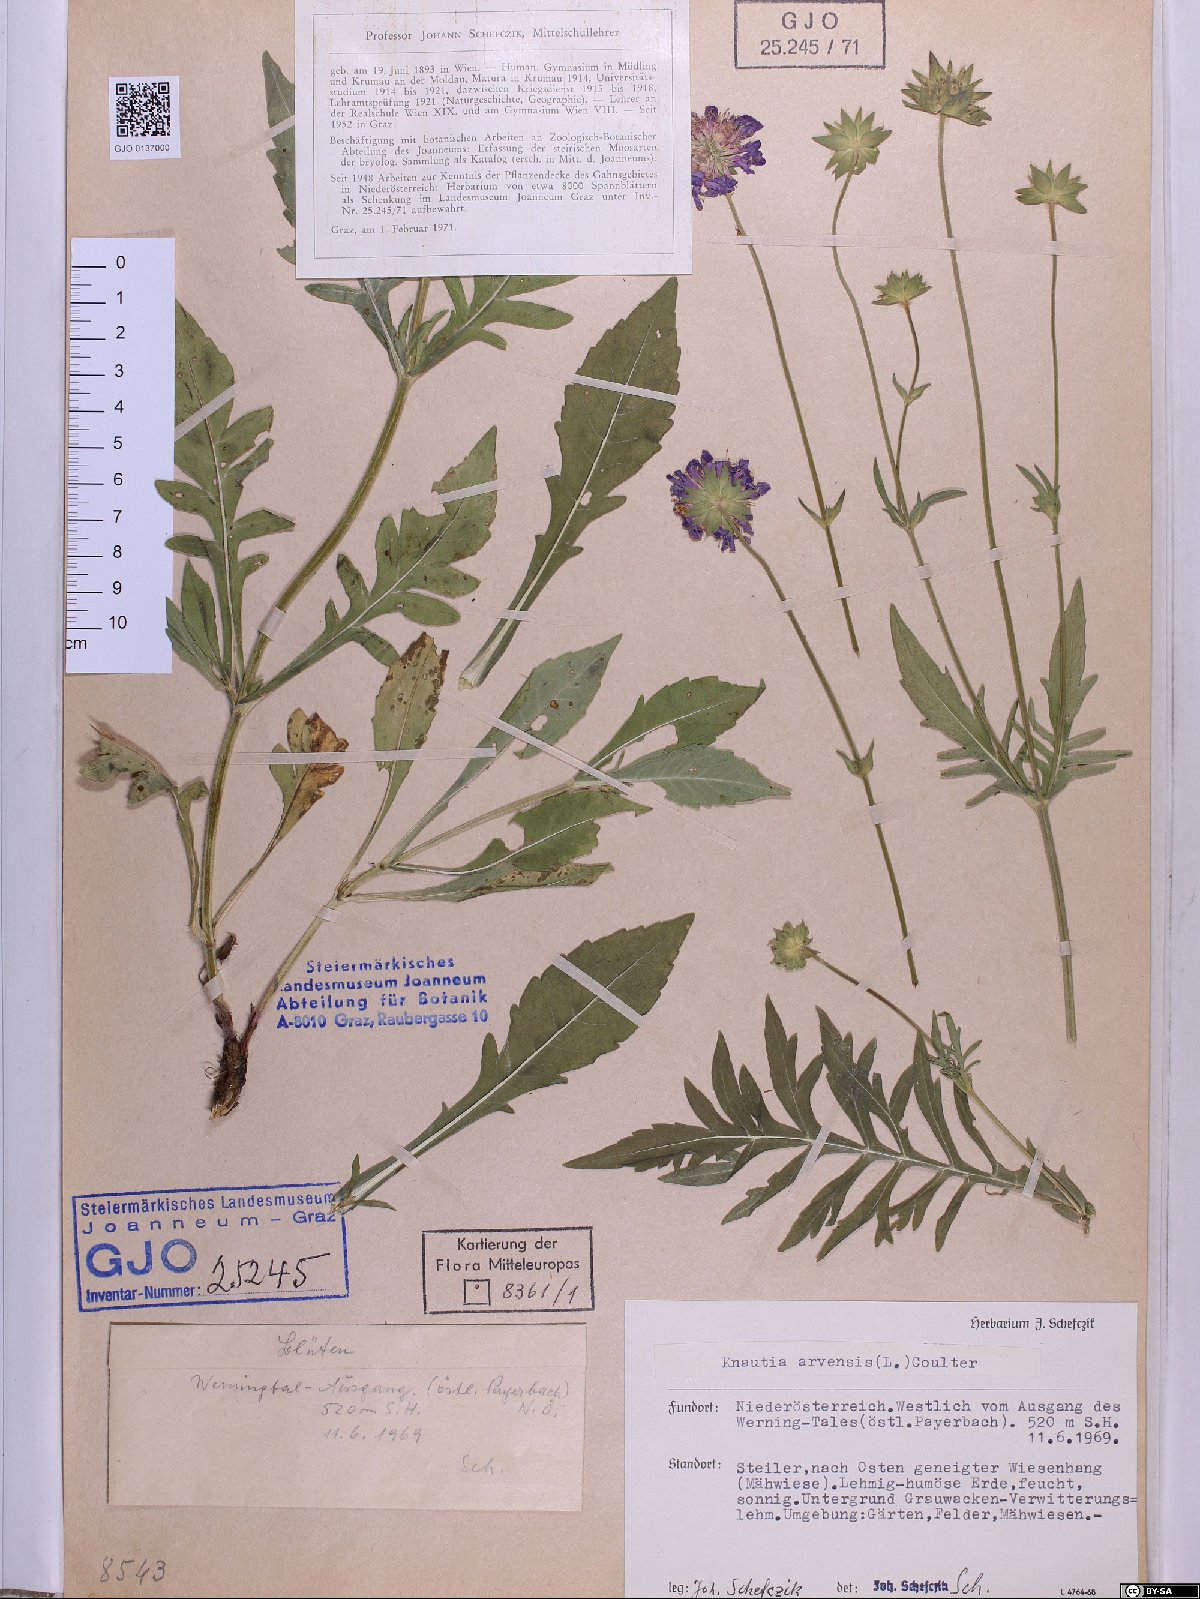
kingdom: Plantae
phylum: Tracheophyta
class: Magnoliopsida
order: Dipsacales
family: Caprifoliaceae
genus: Knautia
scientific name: Knautia arvensis
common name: Field scabiosa
